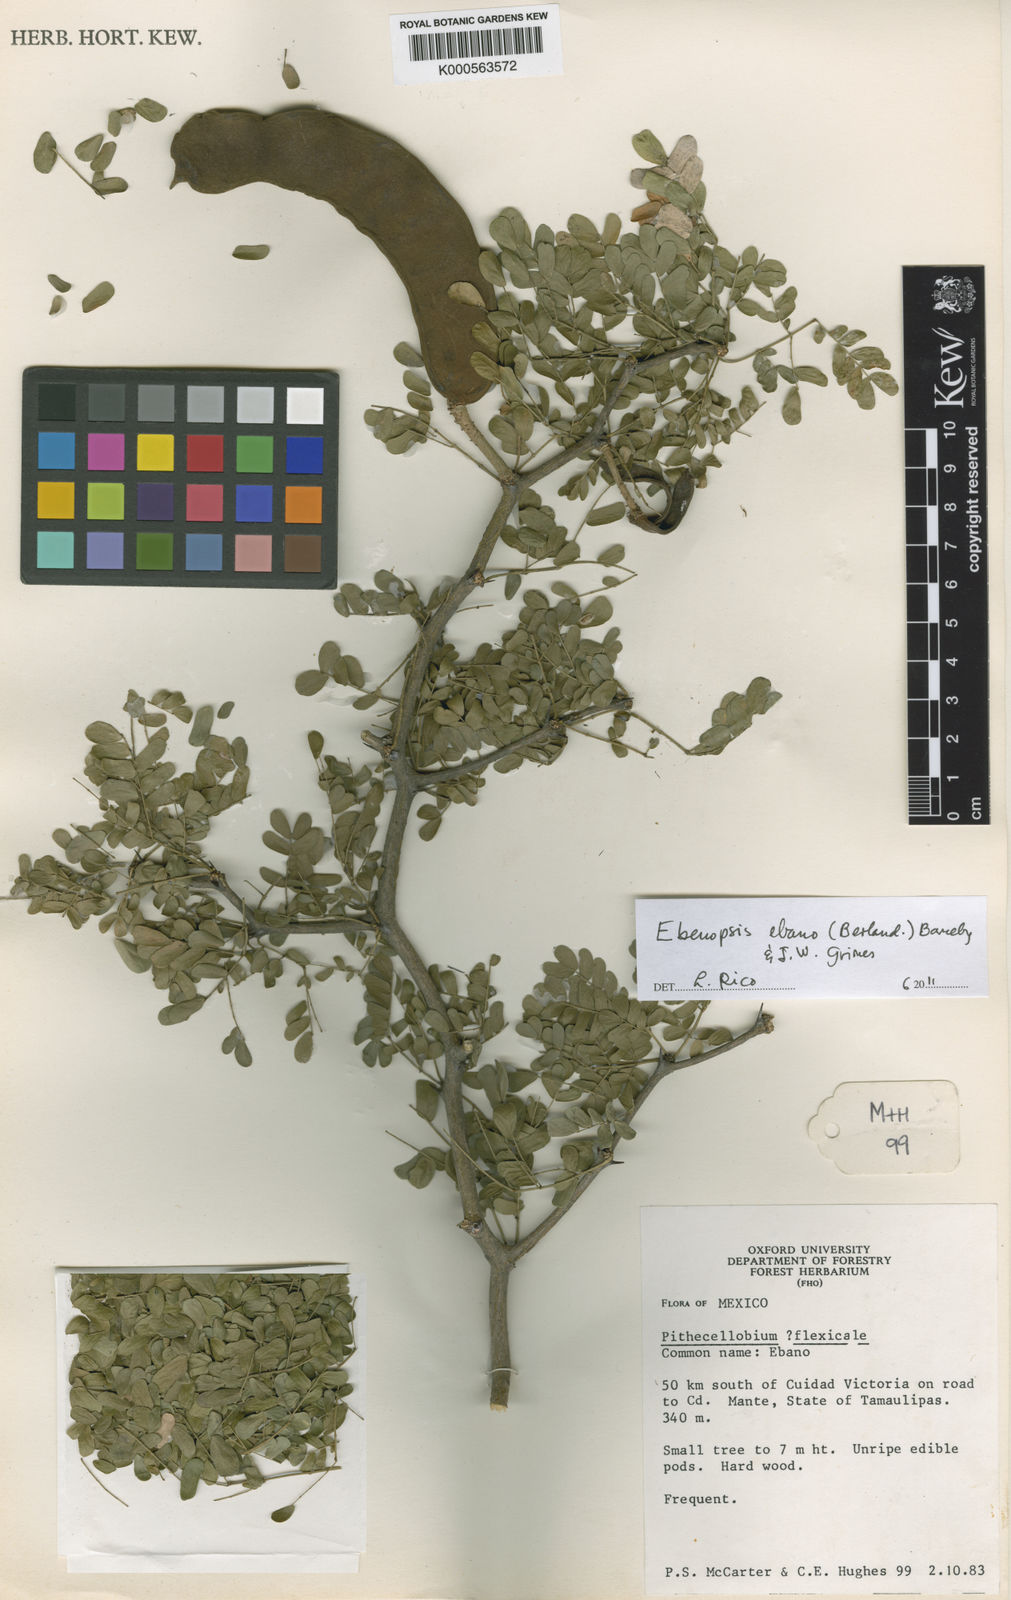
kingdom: Plantae
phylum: Tracheophyta
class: Magnoliopsida
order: Fabales
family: Fabaceae
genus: Ebenopsis
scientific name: Ebenopsis ebano
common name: Ebony blackbead
